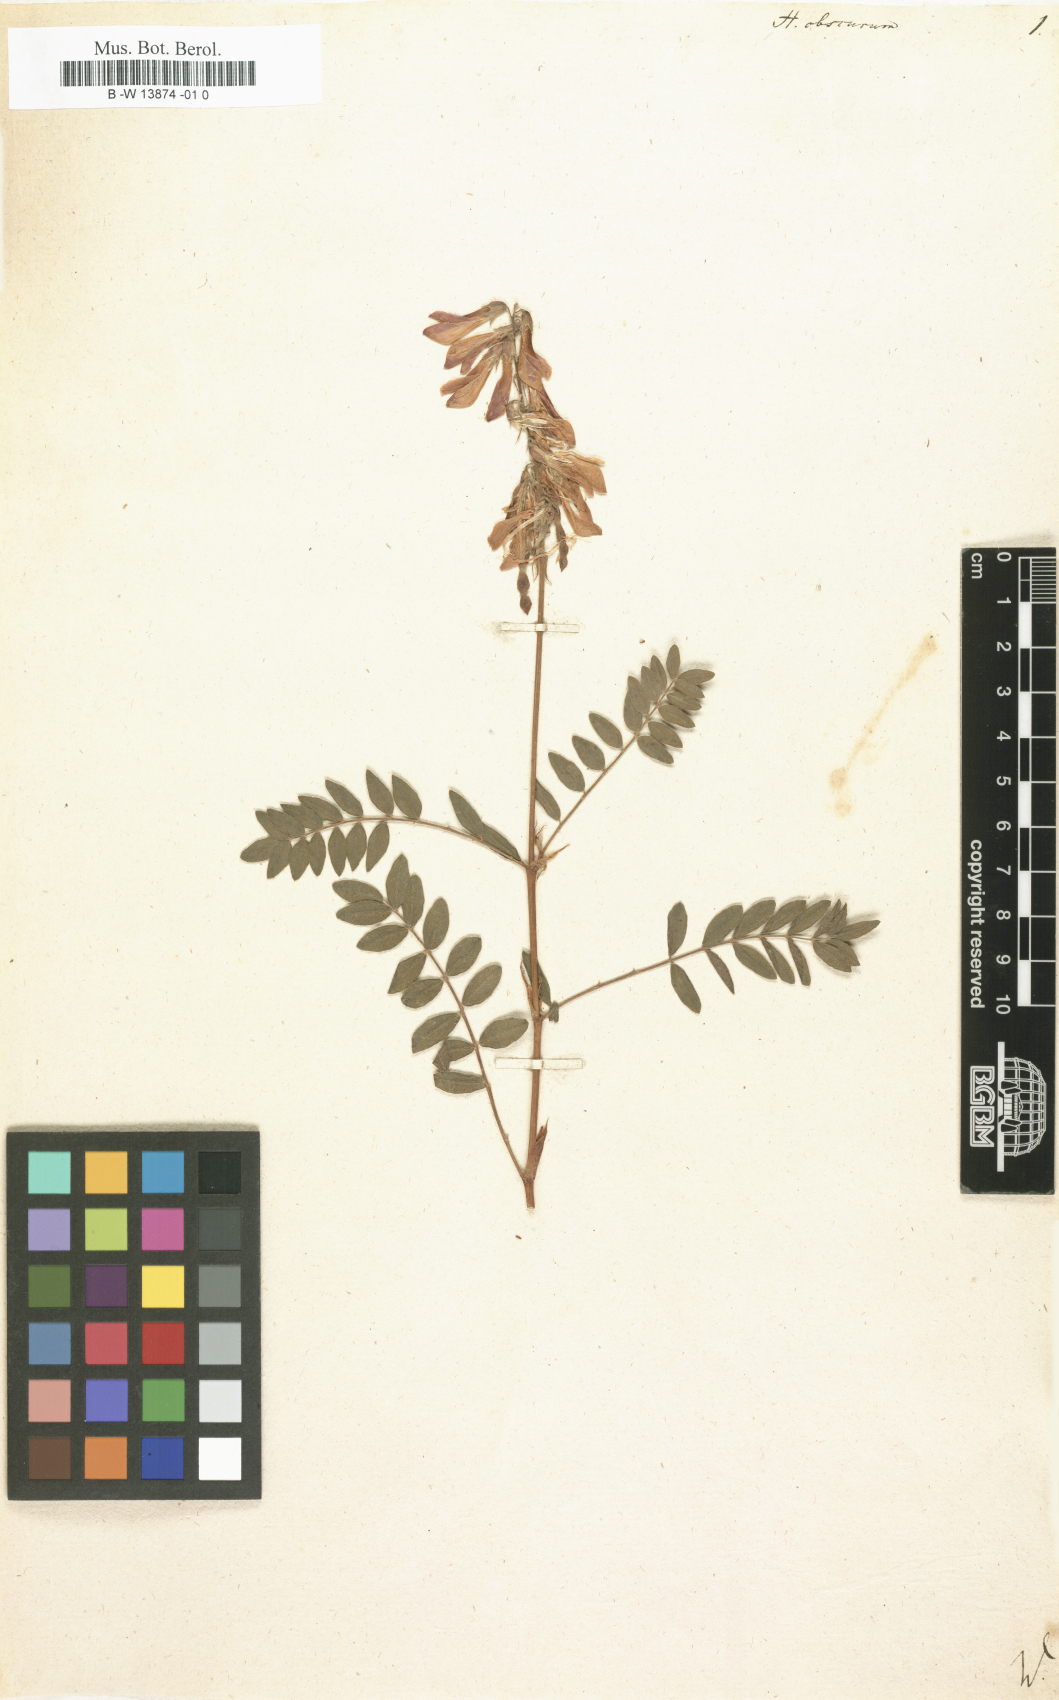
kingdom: Plantae
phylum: Tracheophyta
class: Magnoliopsida
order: Fabales
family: Fabaceae
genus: Hedysarum
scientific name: Hedysarum hedysaroides
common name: Alpine french-honeysuckle
